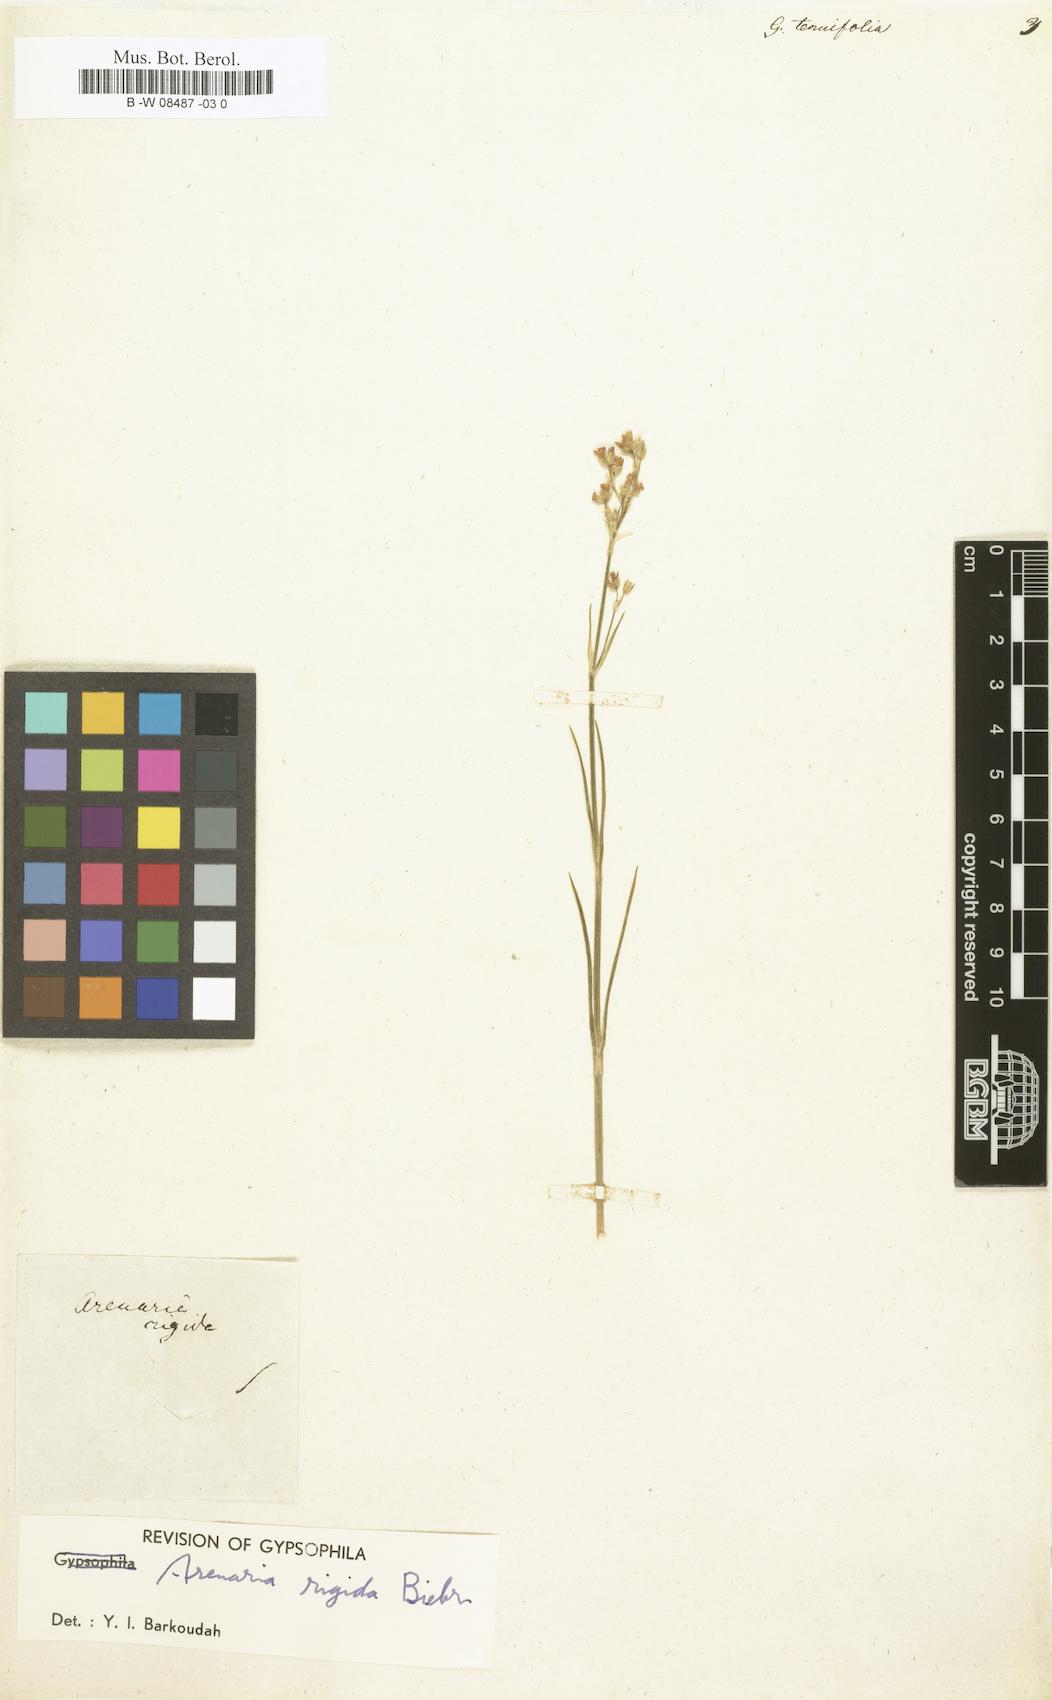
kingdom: Plantae
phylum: Tracheophyta
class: Magnoliopsida
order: Caryophyllales
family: Caryophyllaceae
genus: Gypsophila
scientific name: Gypsophila tenuifolia
